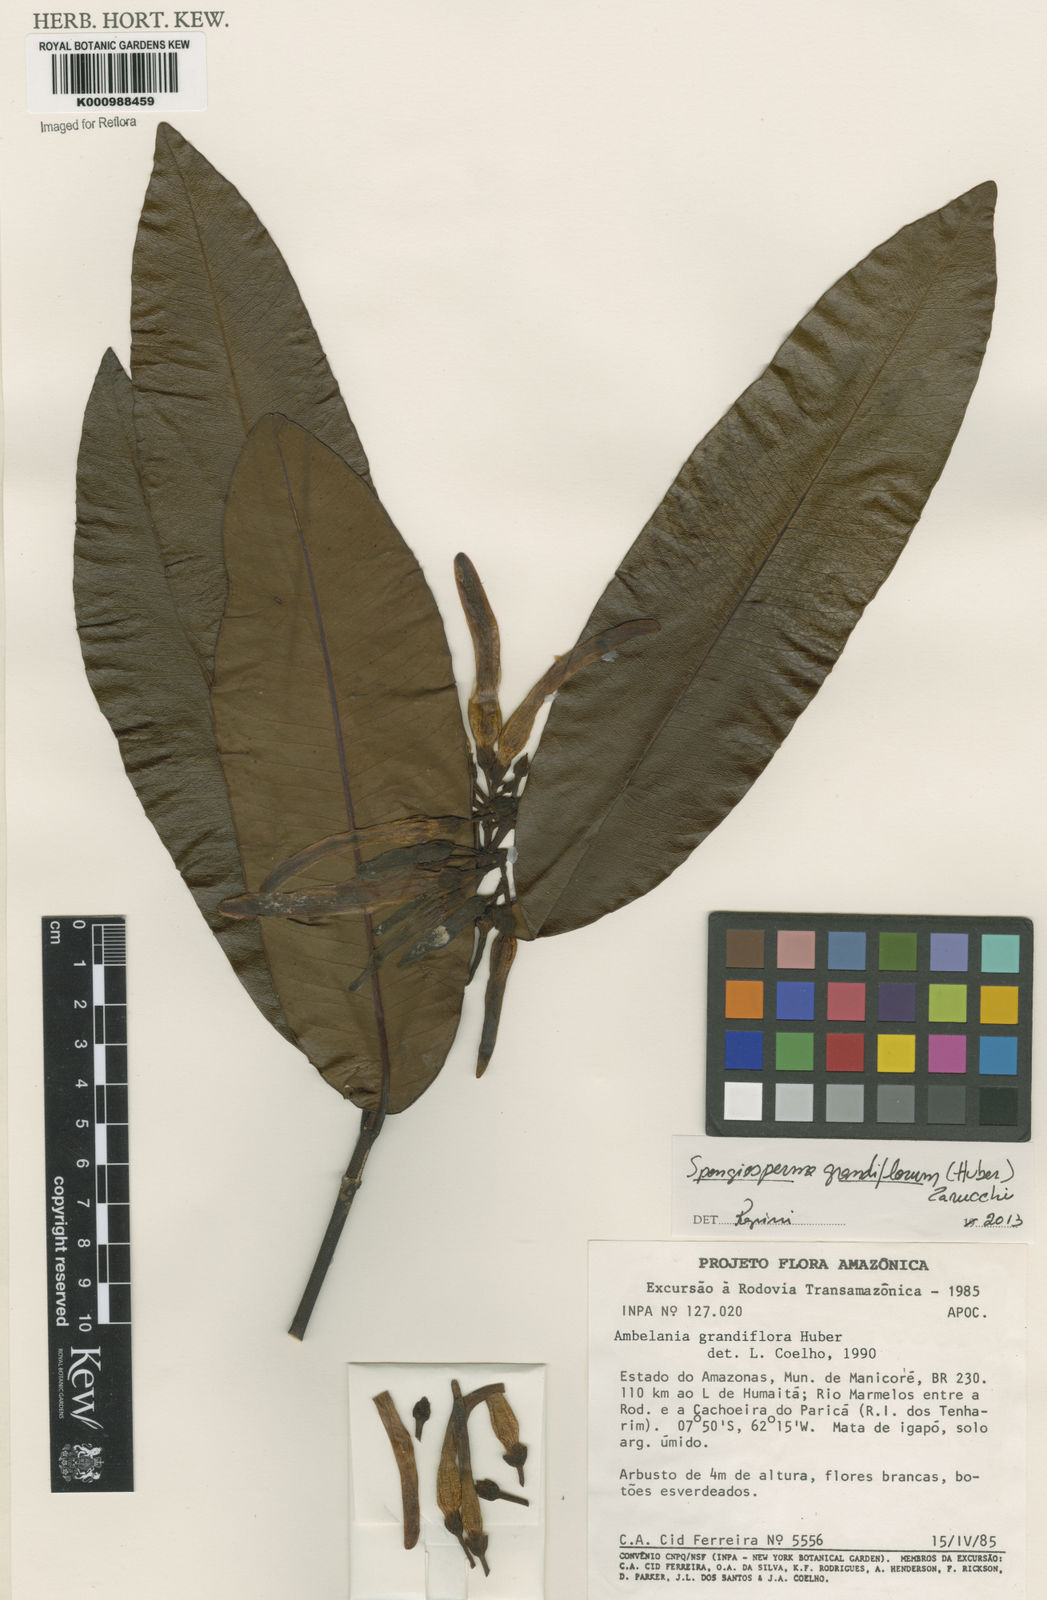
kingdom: Plantae
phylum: Tracheophyta
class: Magnoliopsida
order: Gentianales
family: Apocynaceae
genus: Aspidosperma
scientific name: Aspidosperma
